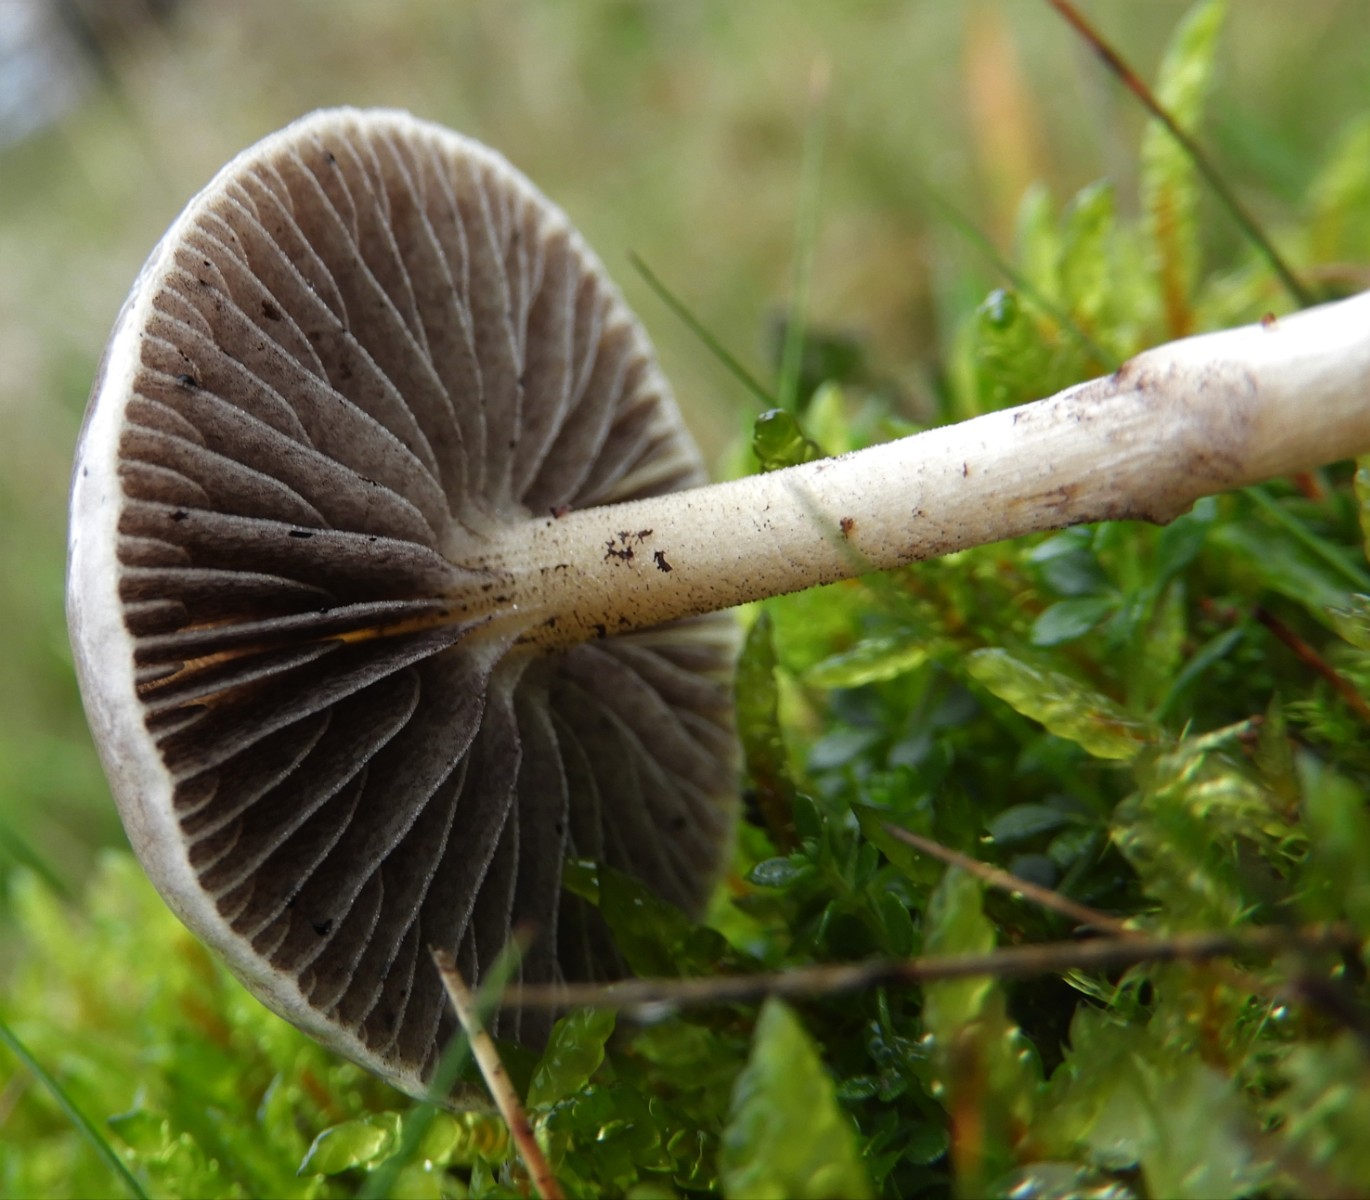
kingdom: Fungi
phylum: Basidiomycota
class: Agaricomycetes
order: Agaricales
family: Strophariaceae
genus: Protostropharia
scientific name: Protostropharia semiglobata
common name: halvkugleformet bredblad
